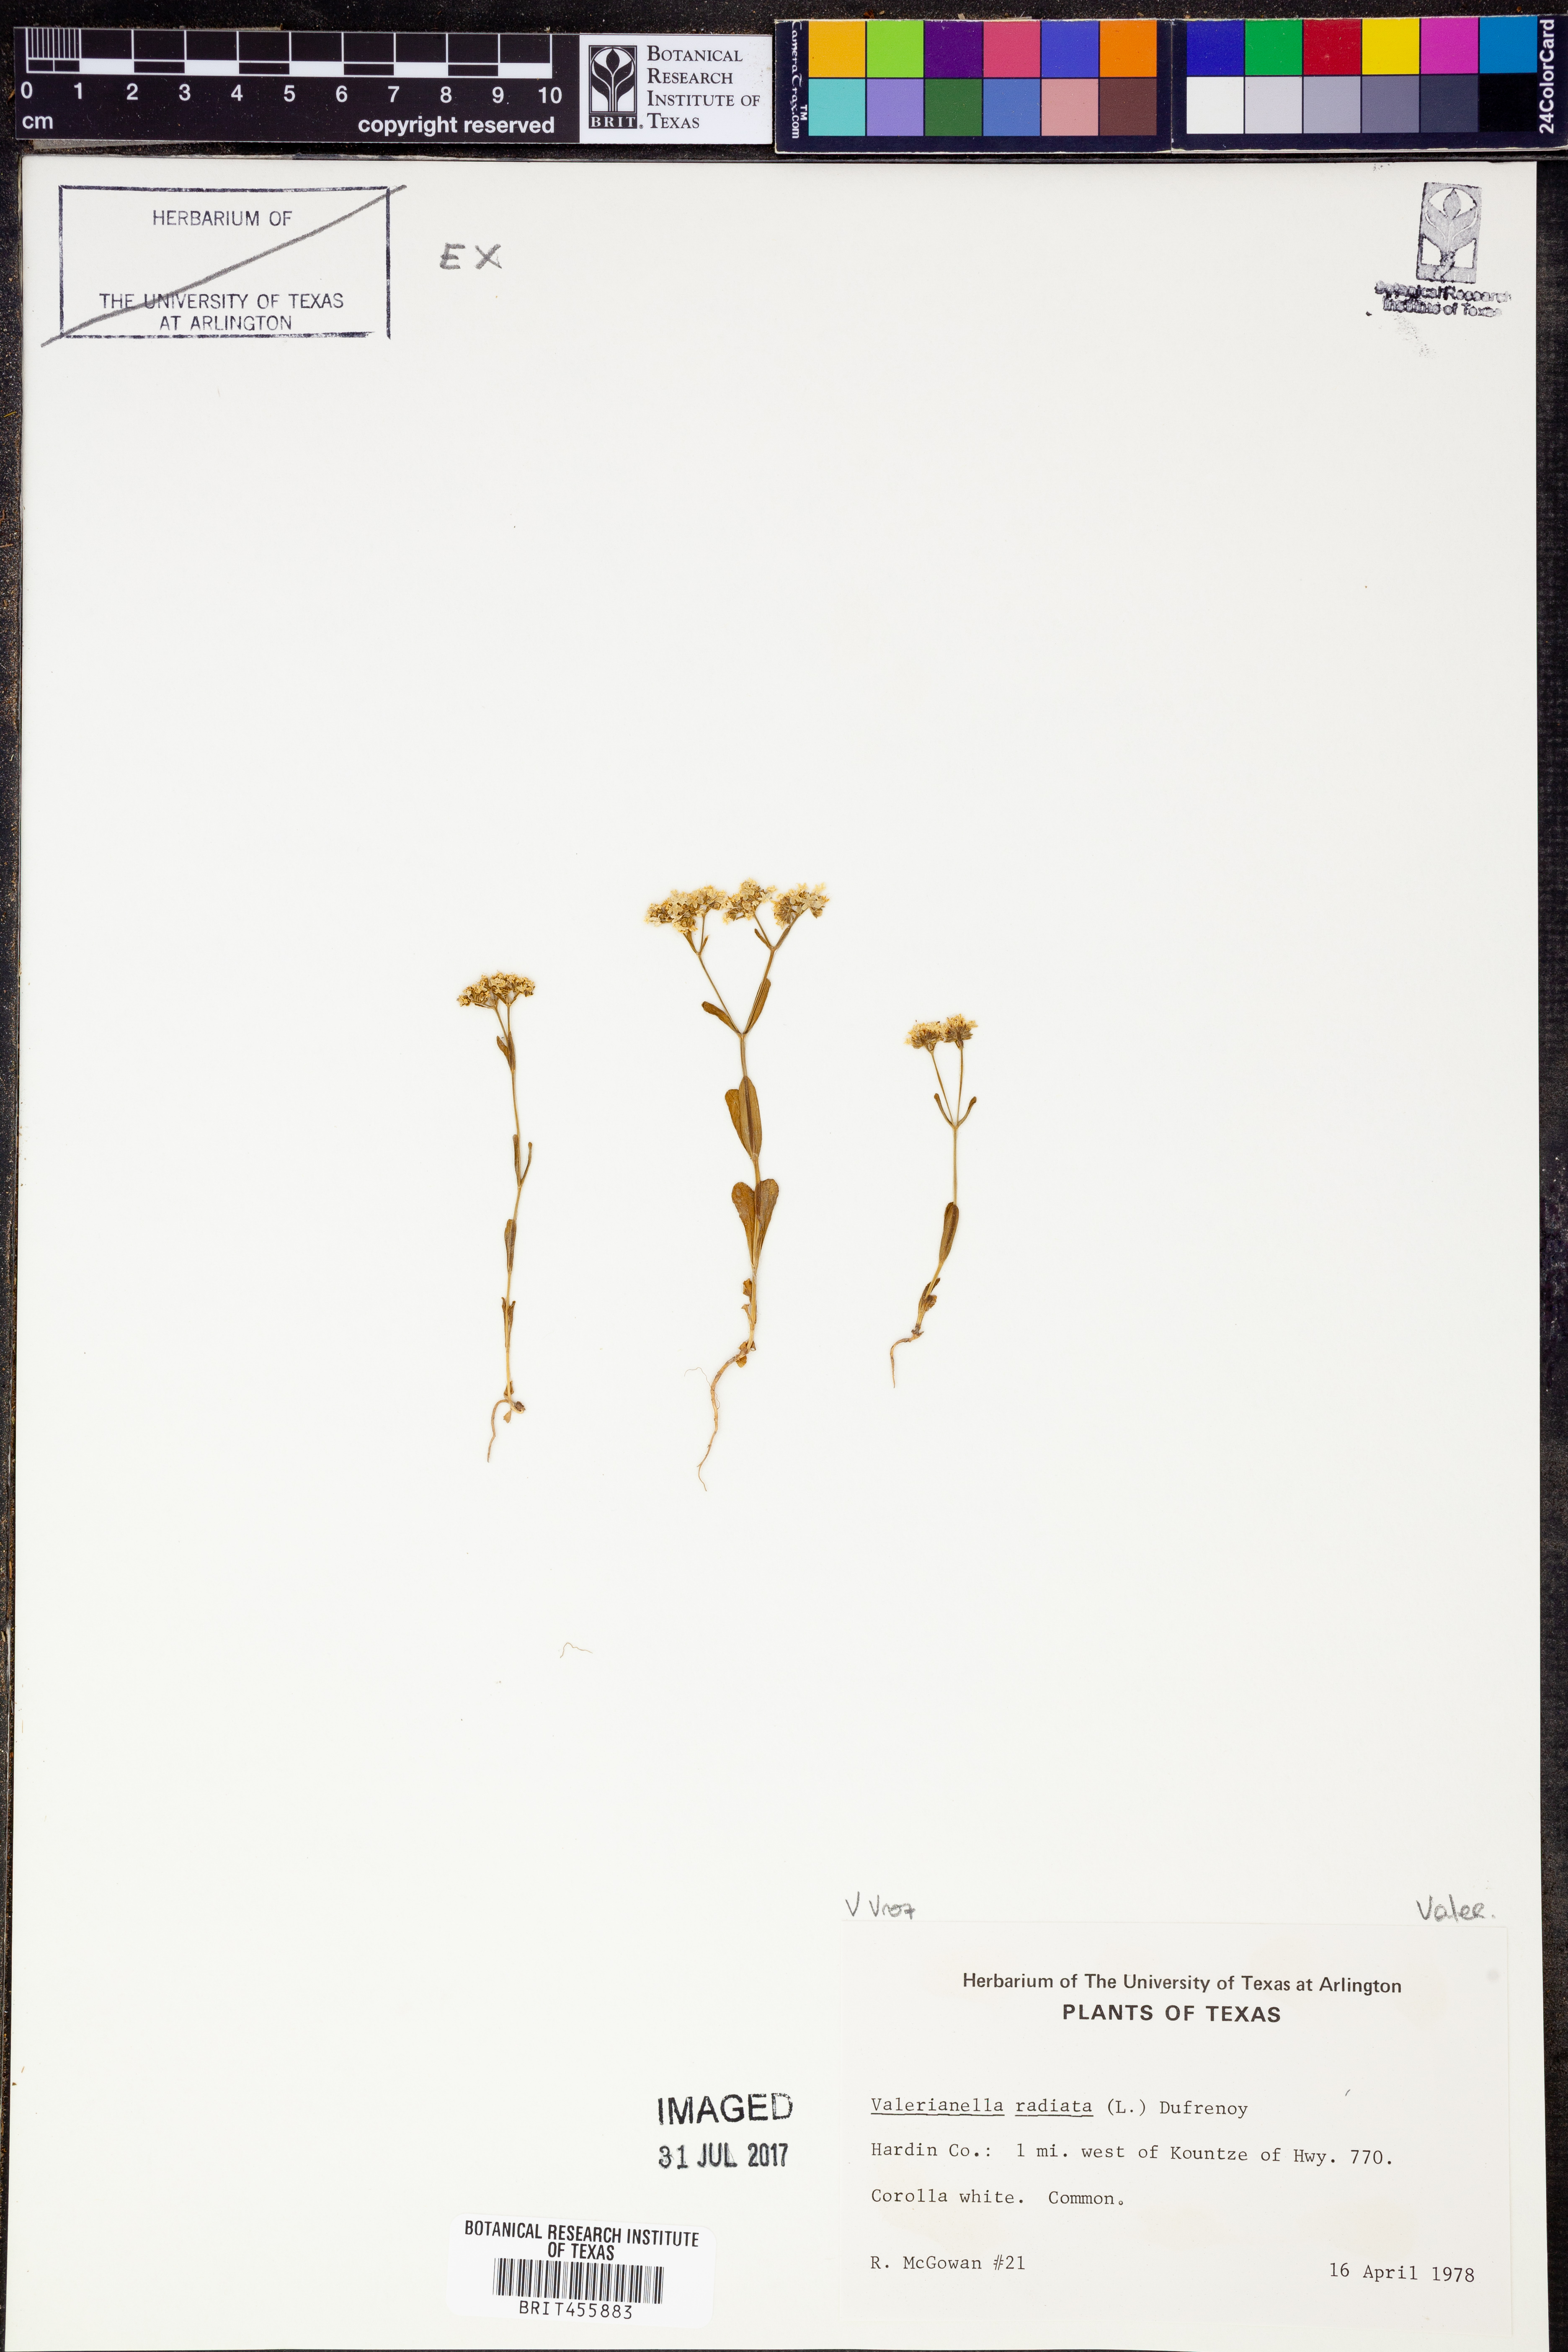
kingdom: Plantae
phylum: Tracheophyta
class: Magnoliopsida
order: Dipsacales
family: Caprifoliaceae
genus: Valerianella
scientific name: Valerianella radiata
